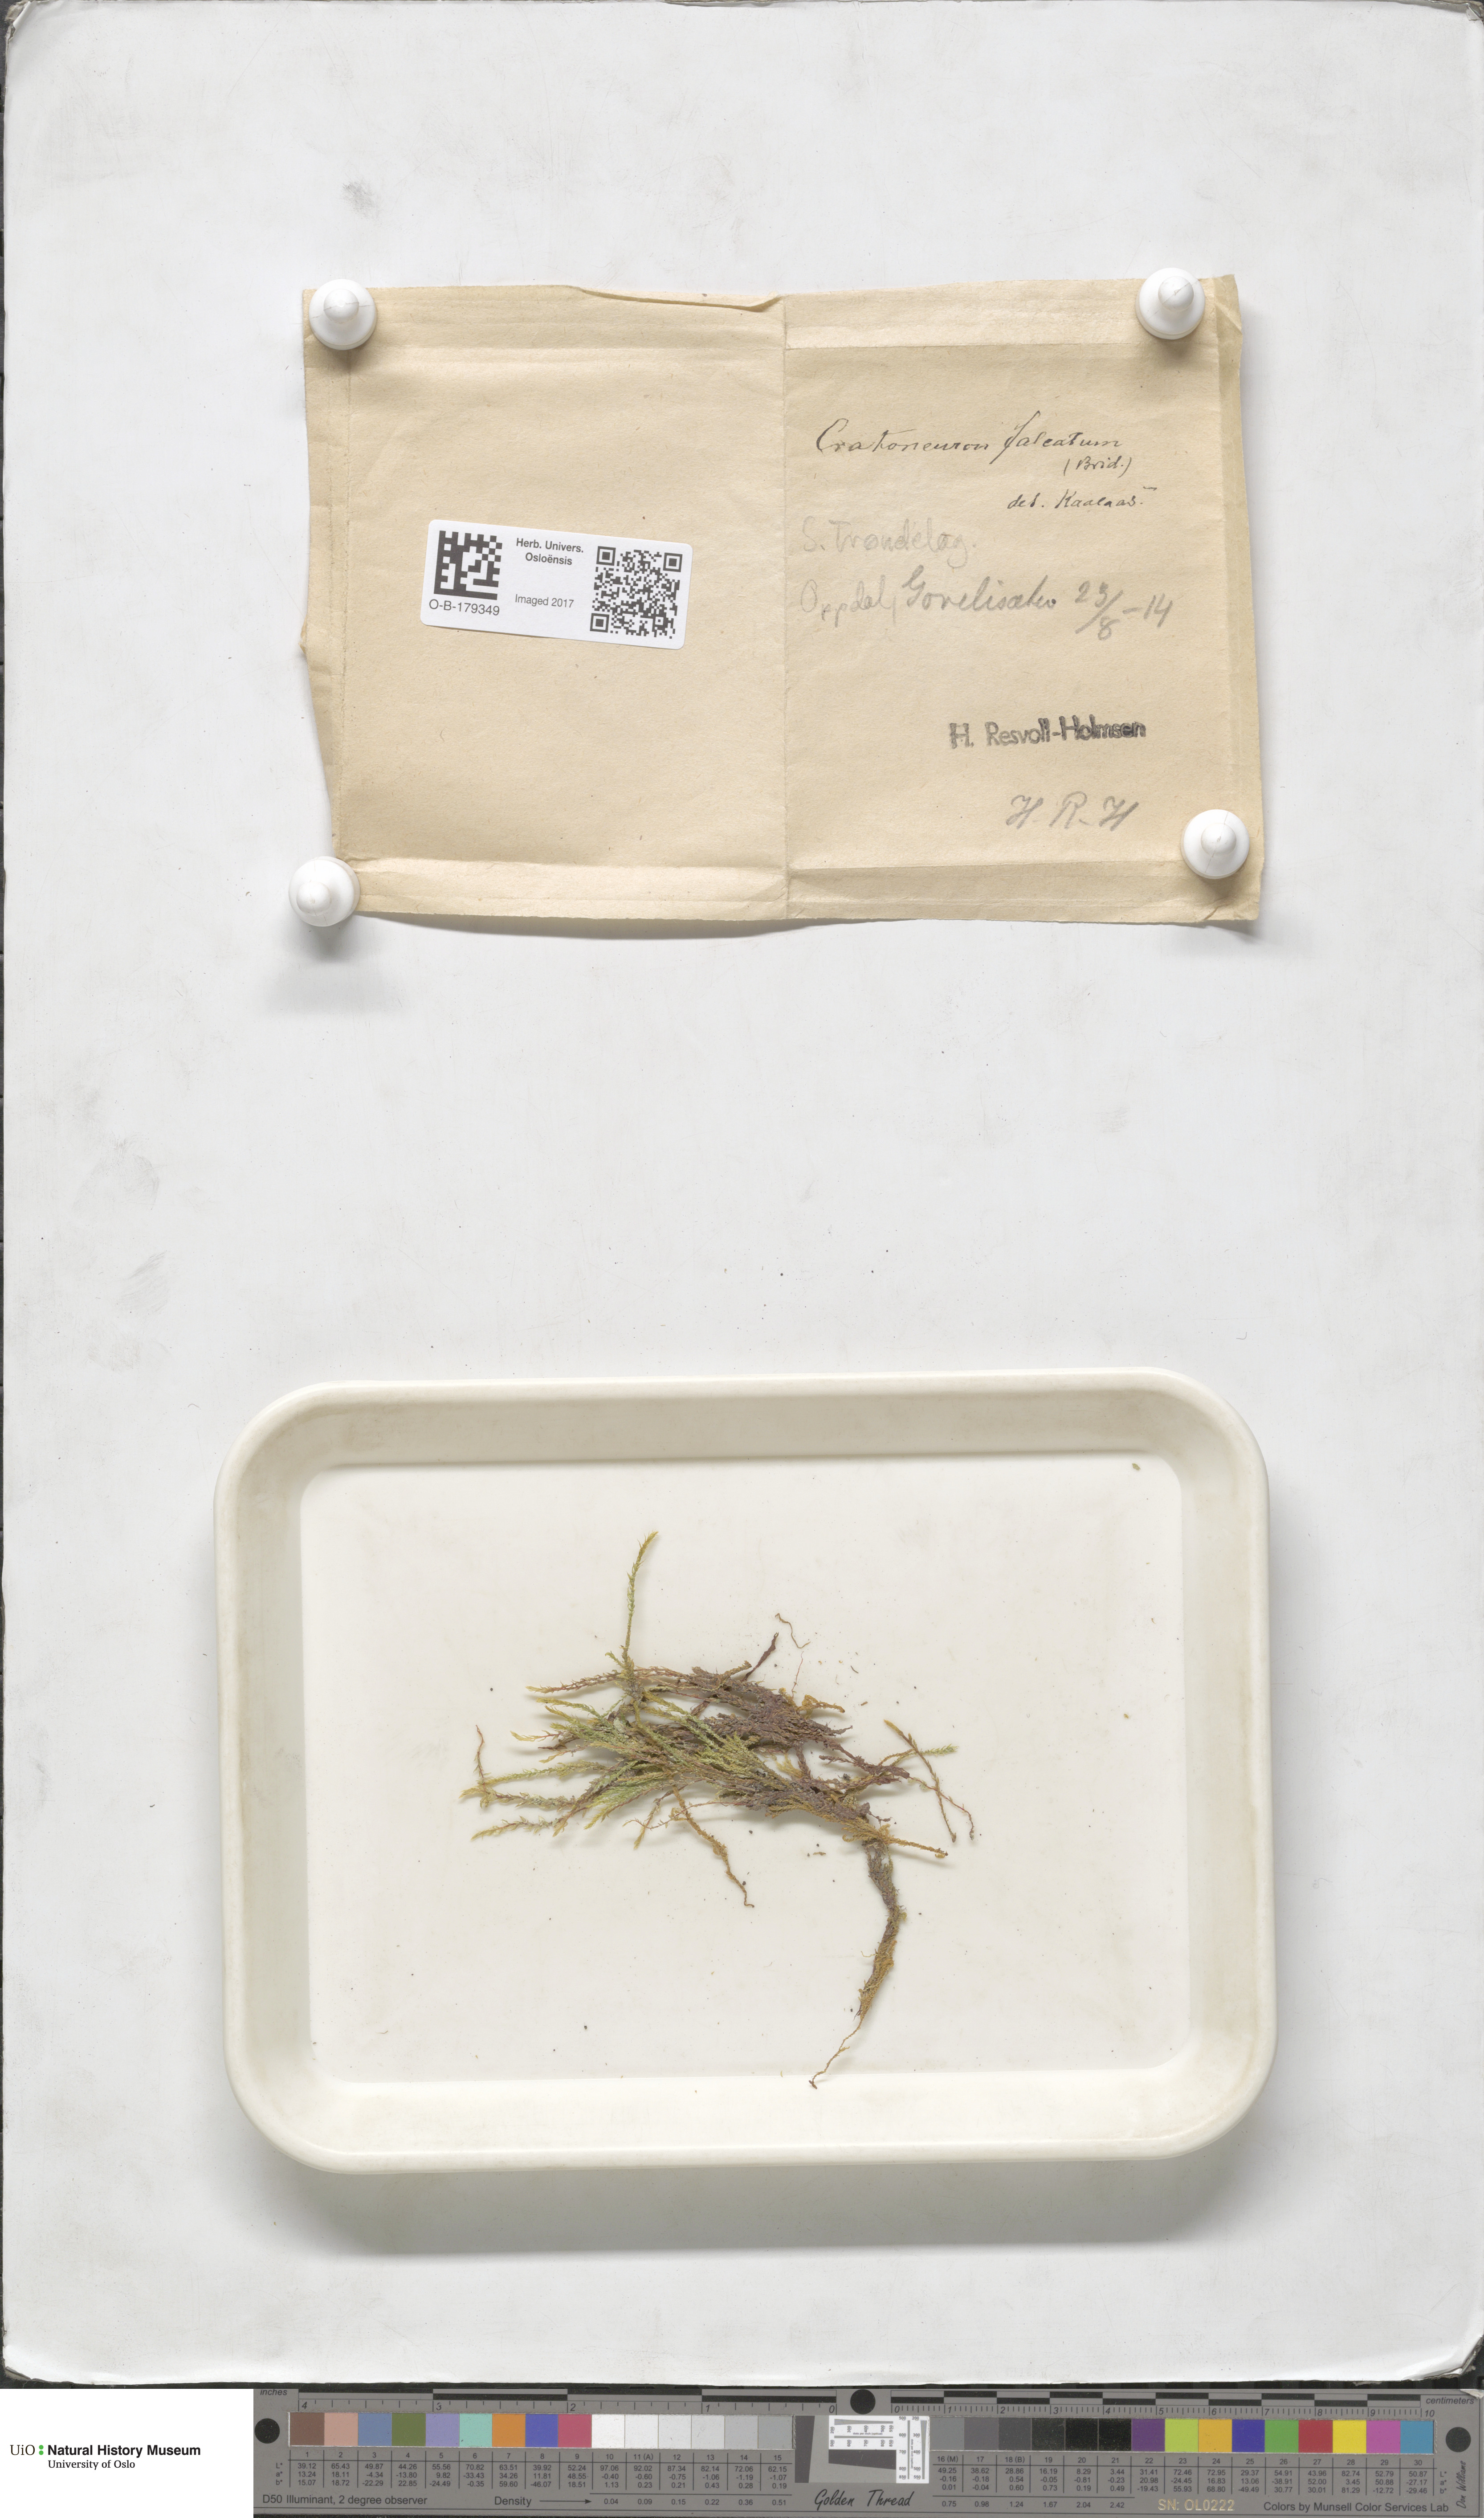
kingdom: Plantae
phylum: Bryophyta
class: Bryopsida
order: Hypnales
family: Amblystegiaceae
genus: Cratoneuron
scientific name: Cratoneuron filicinum
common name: Fern-leaved hook moss
